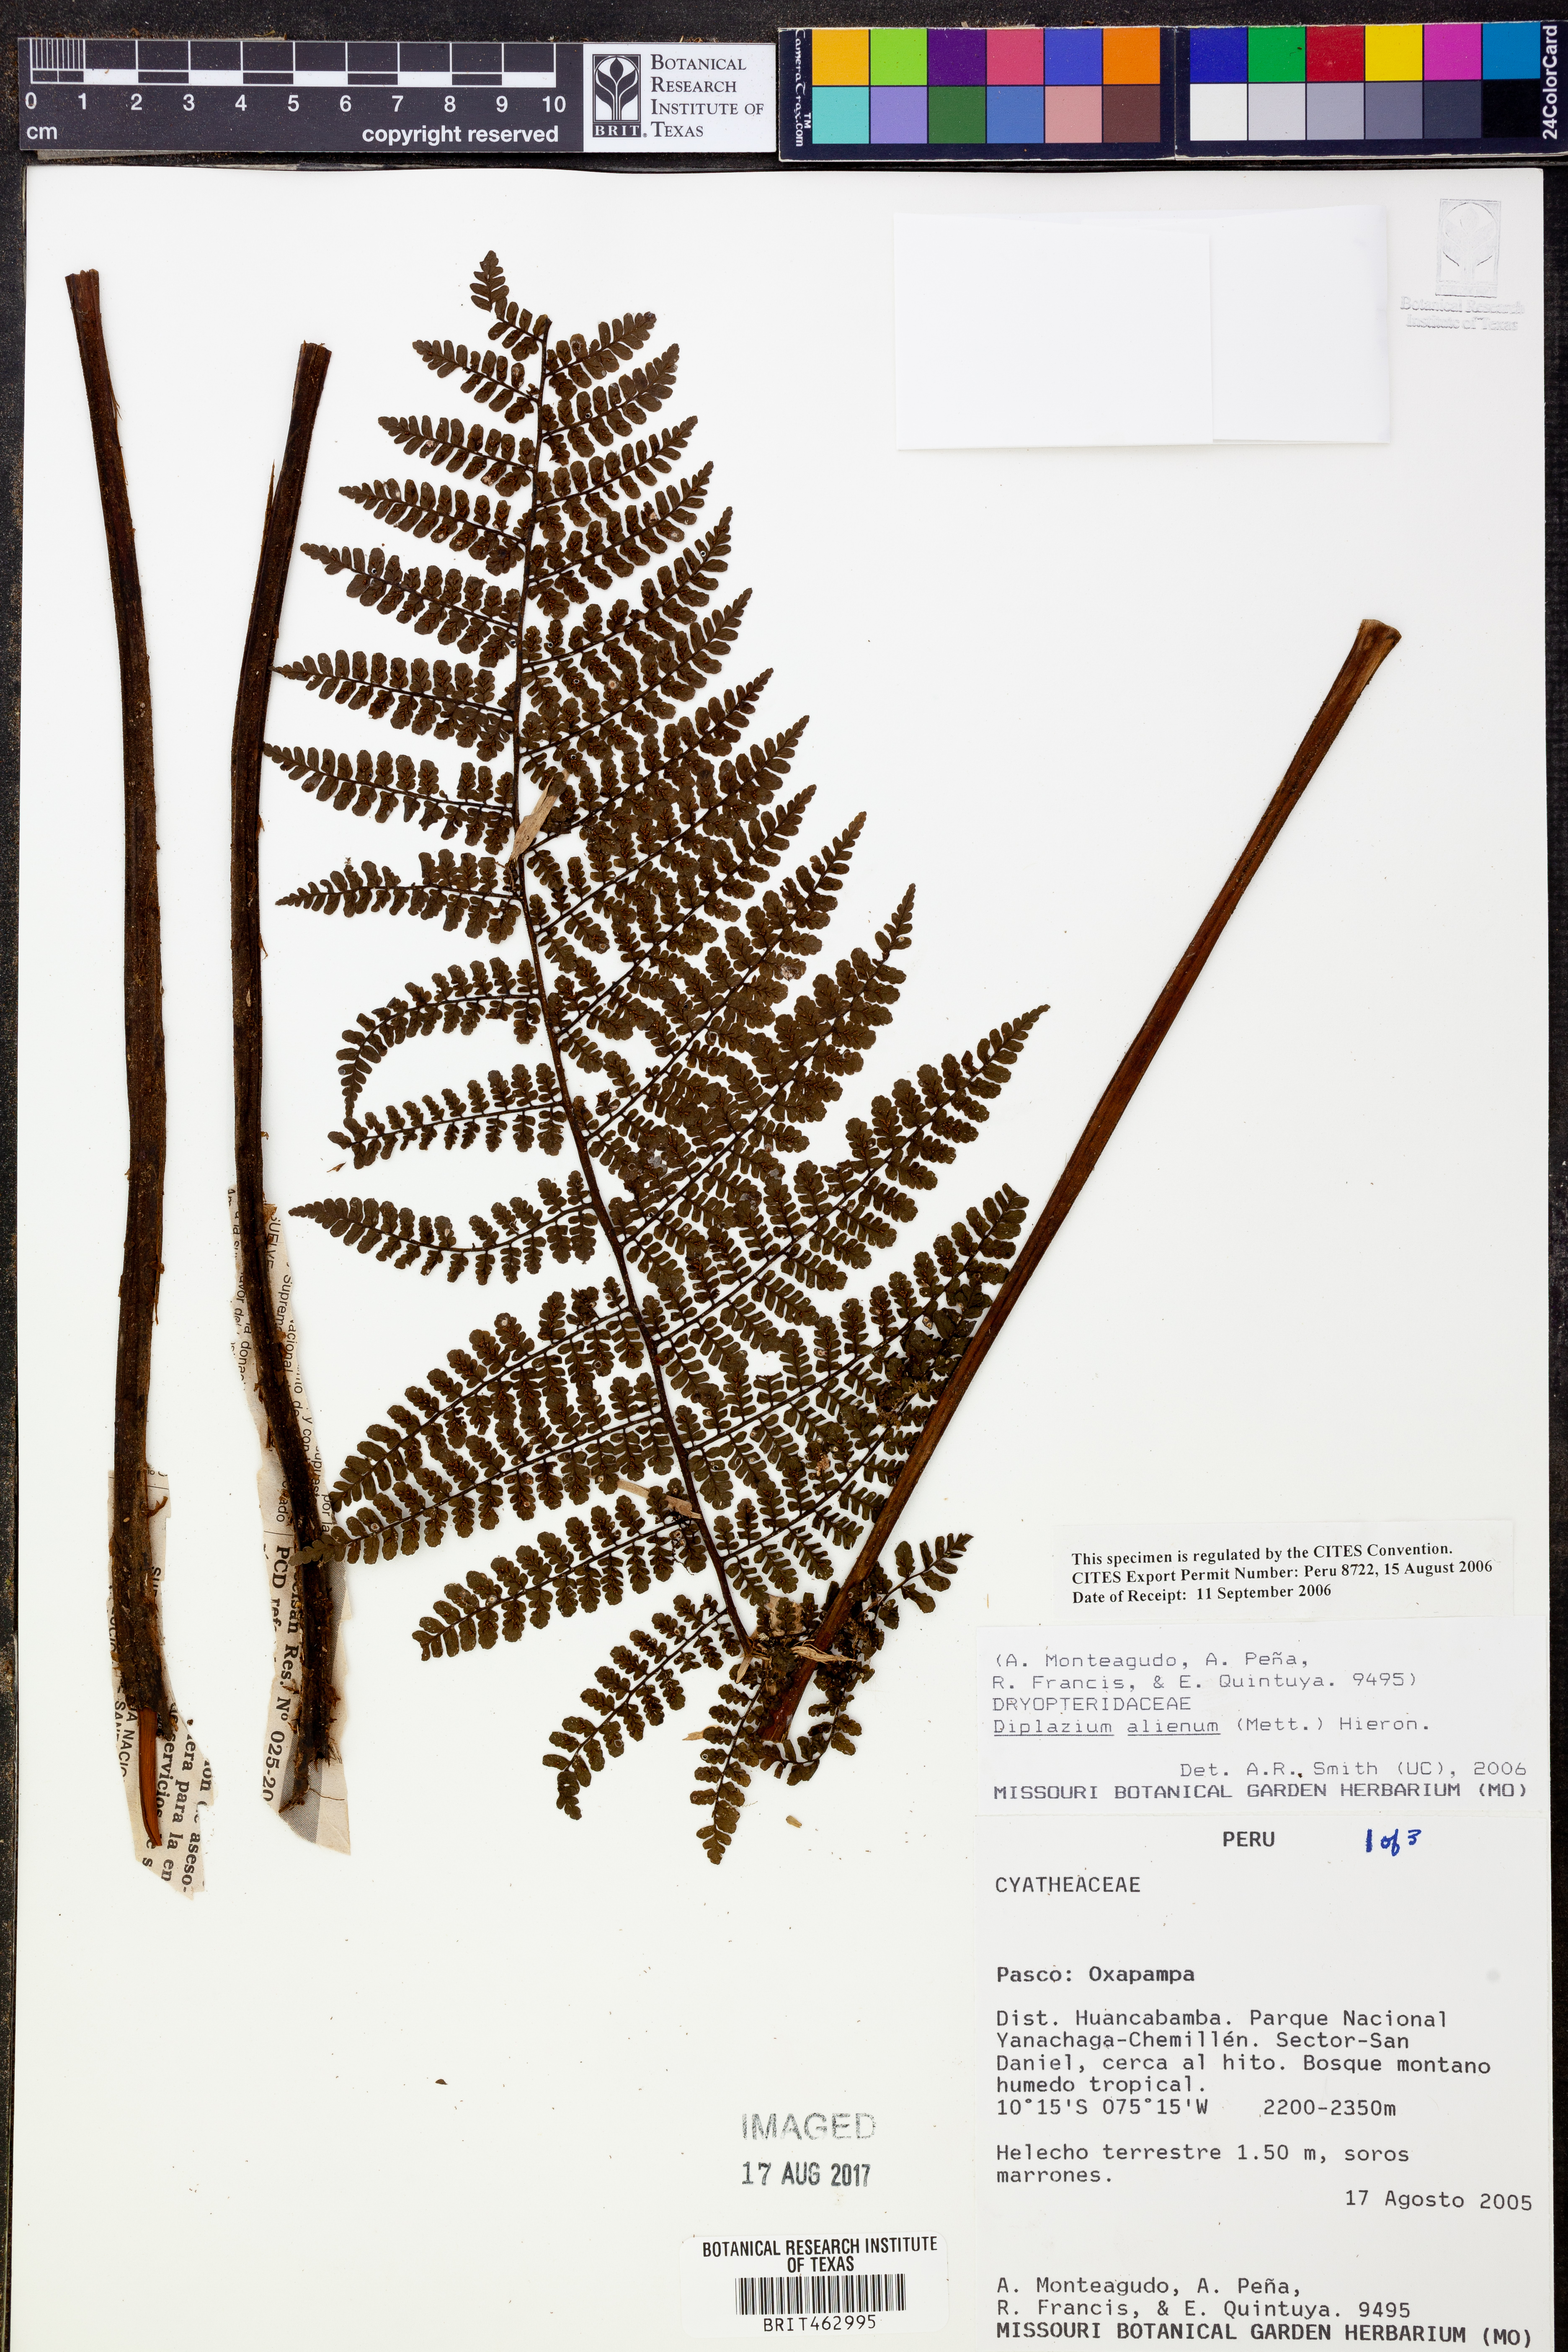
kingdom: Plantae
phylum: Tracheophyta
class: Polypodiopsida
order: Polypodiales
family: Athyriaceae
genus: Diplazium
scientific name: Diplazium alienum
